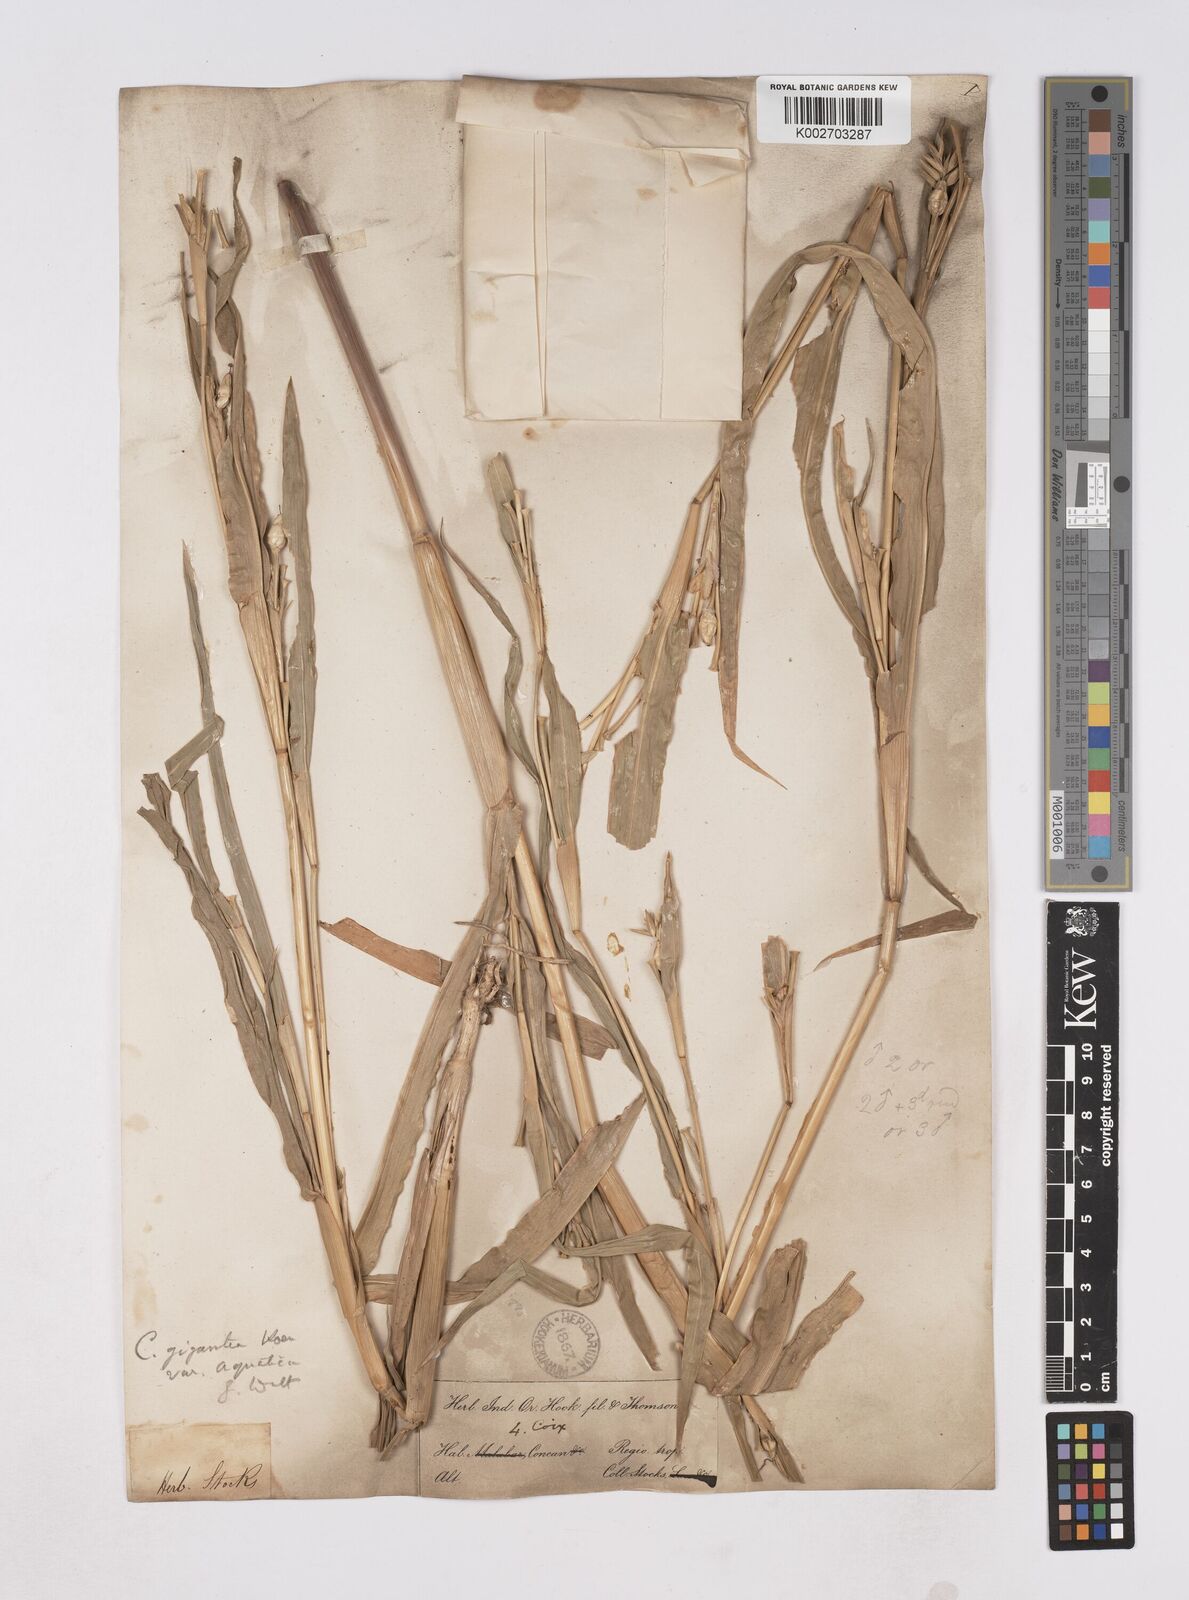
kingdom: Plantae
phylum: Tracheophyta
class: Liliopsida
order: Poales
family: Poaceae
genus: Coix
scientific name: Coix aquatica
